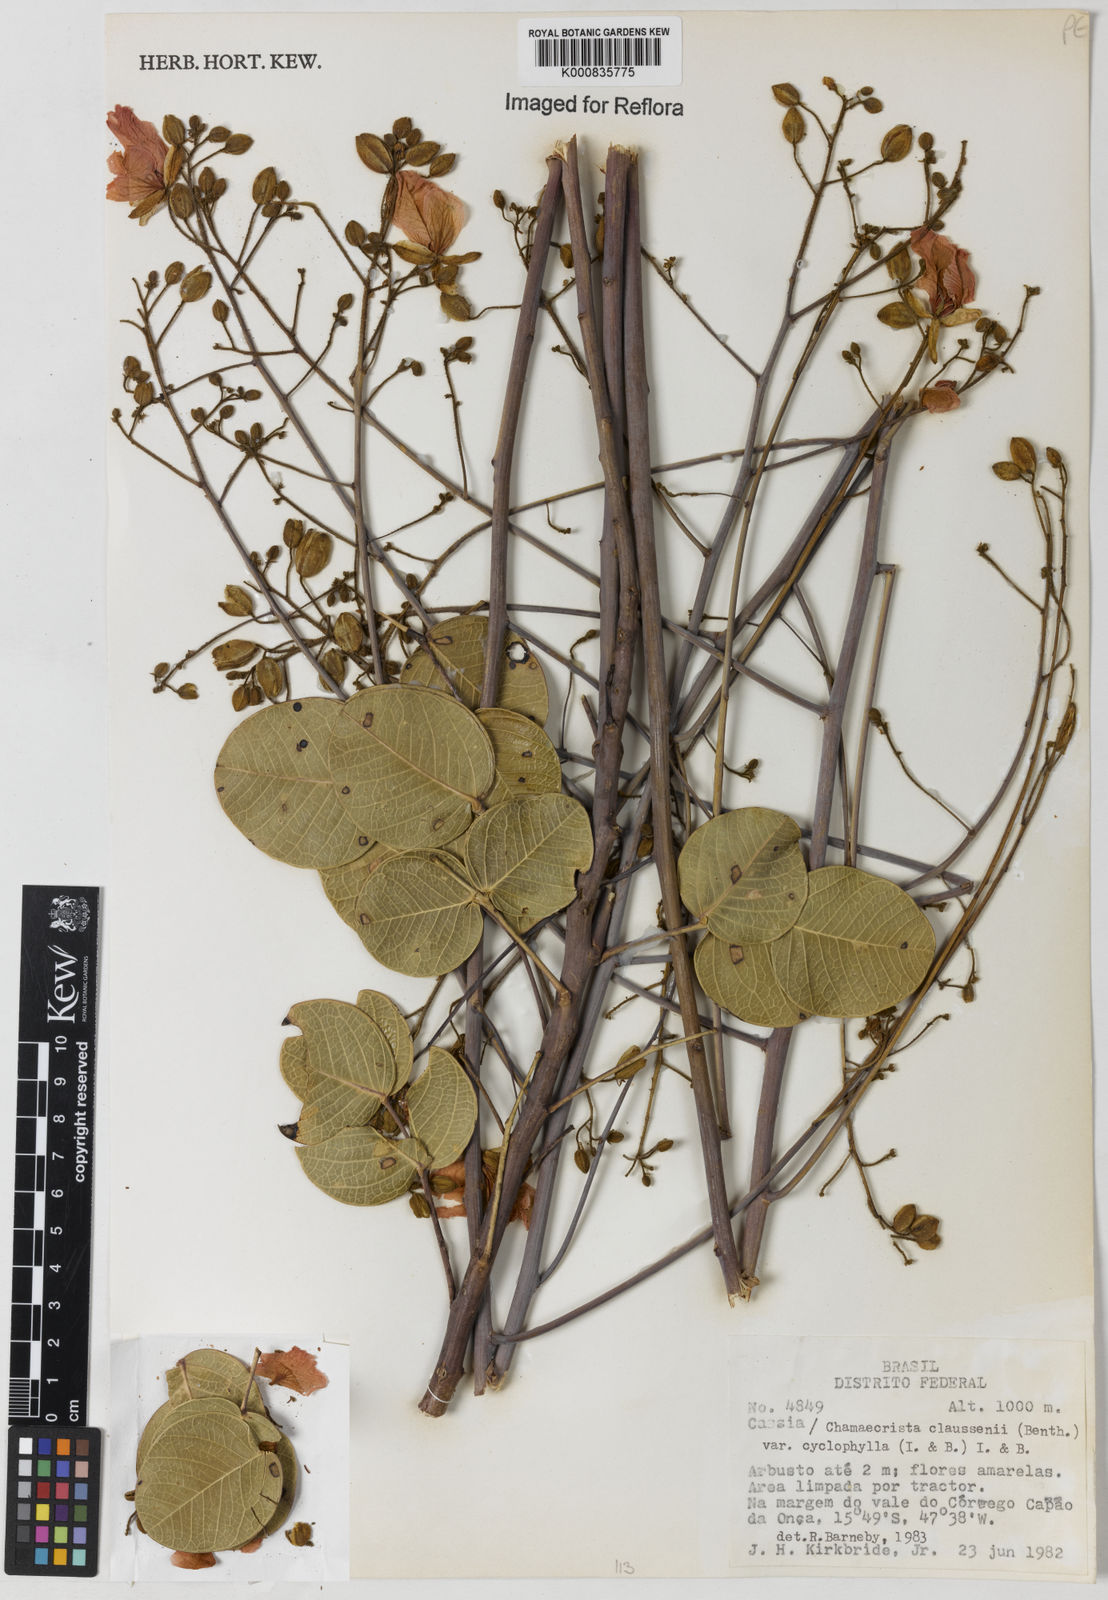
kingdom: Plantae
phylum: Tracheophyta
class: Magnoliopsida
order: Fabales
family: Fabaceae
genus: Chamaecrista
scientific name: Chamaecrista cyclophylla
